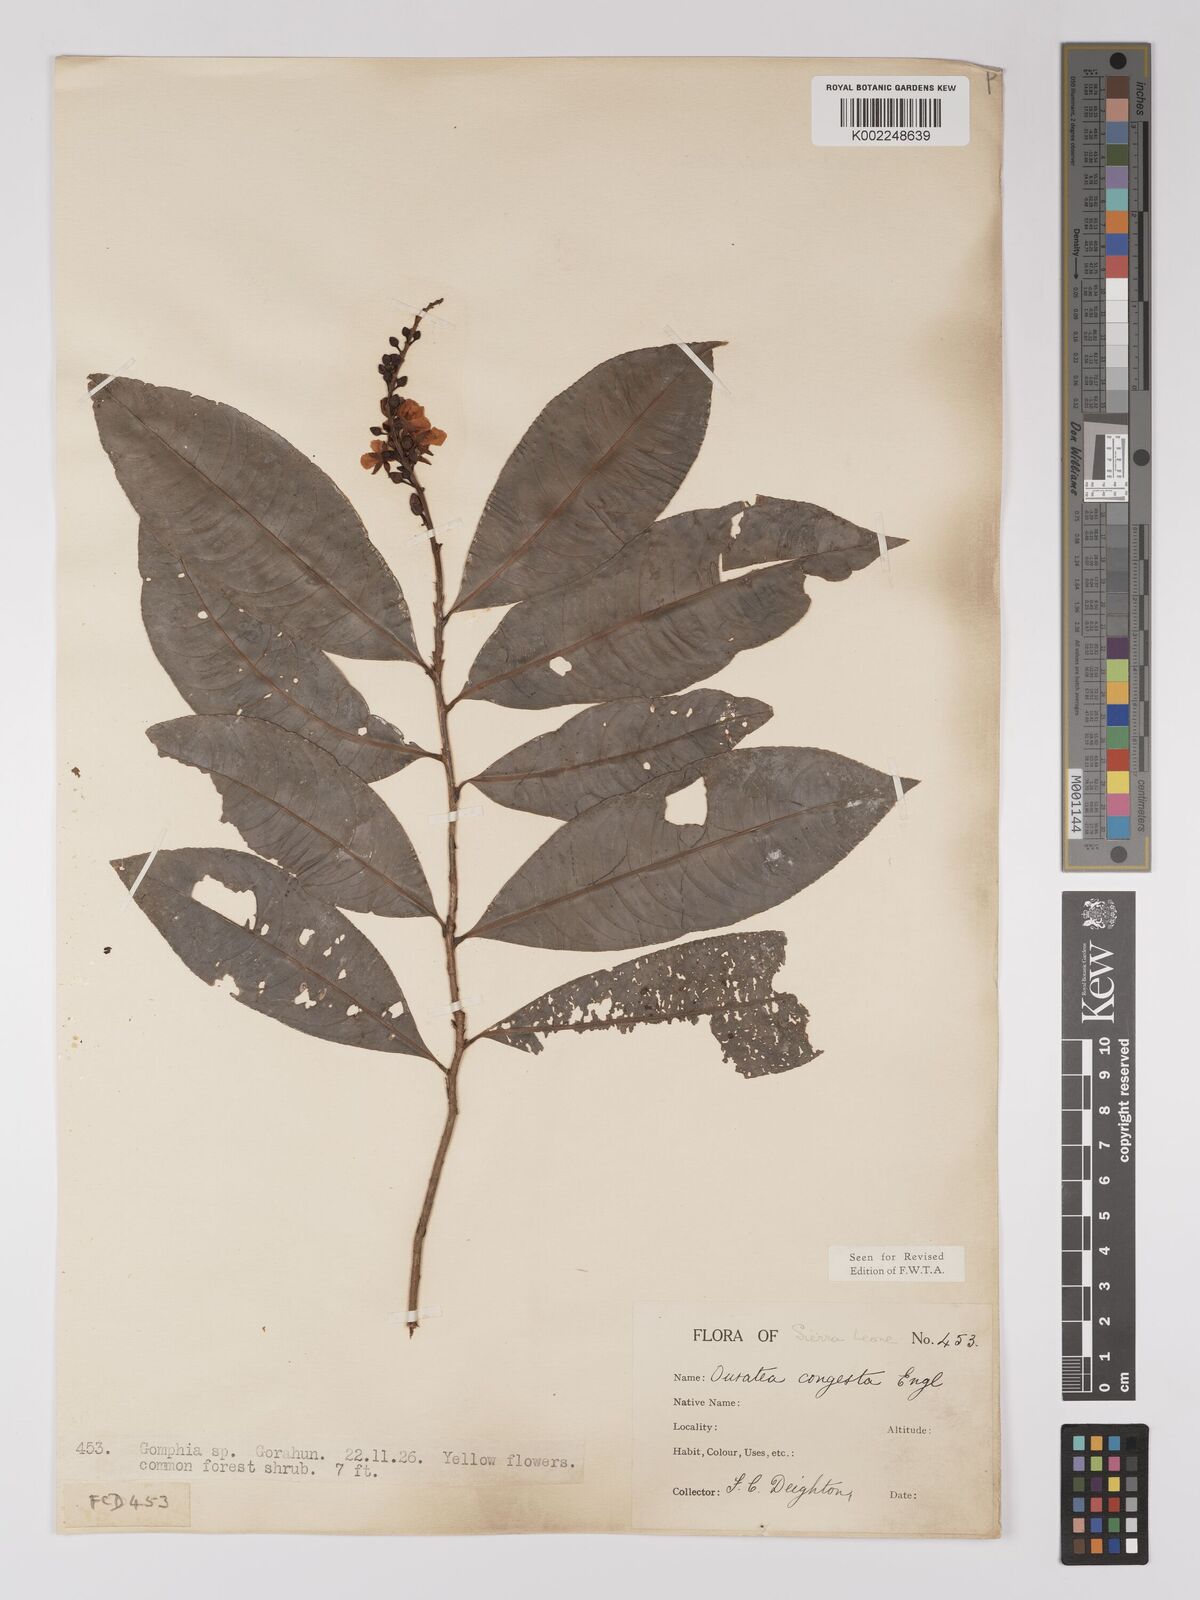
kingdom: Plantae
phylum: Tracheophyta
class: Magnoliopsida
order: Malpighiales
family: Ochnaceae
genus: Campylospermum
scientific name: Campylospermum congestum
